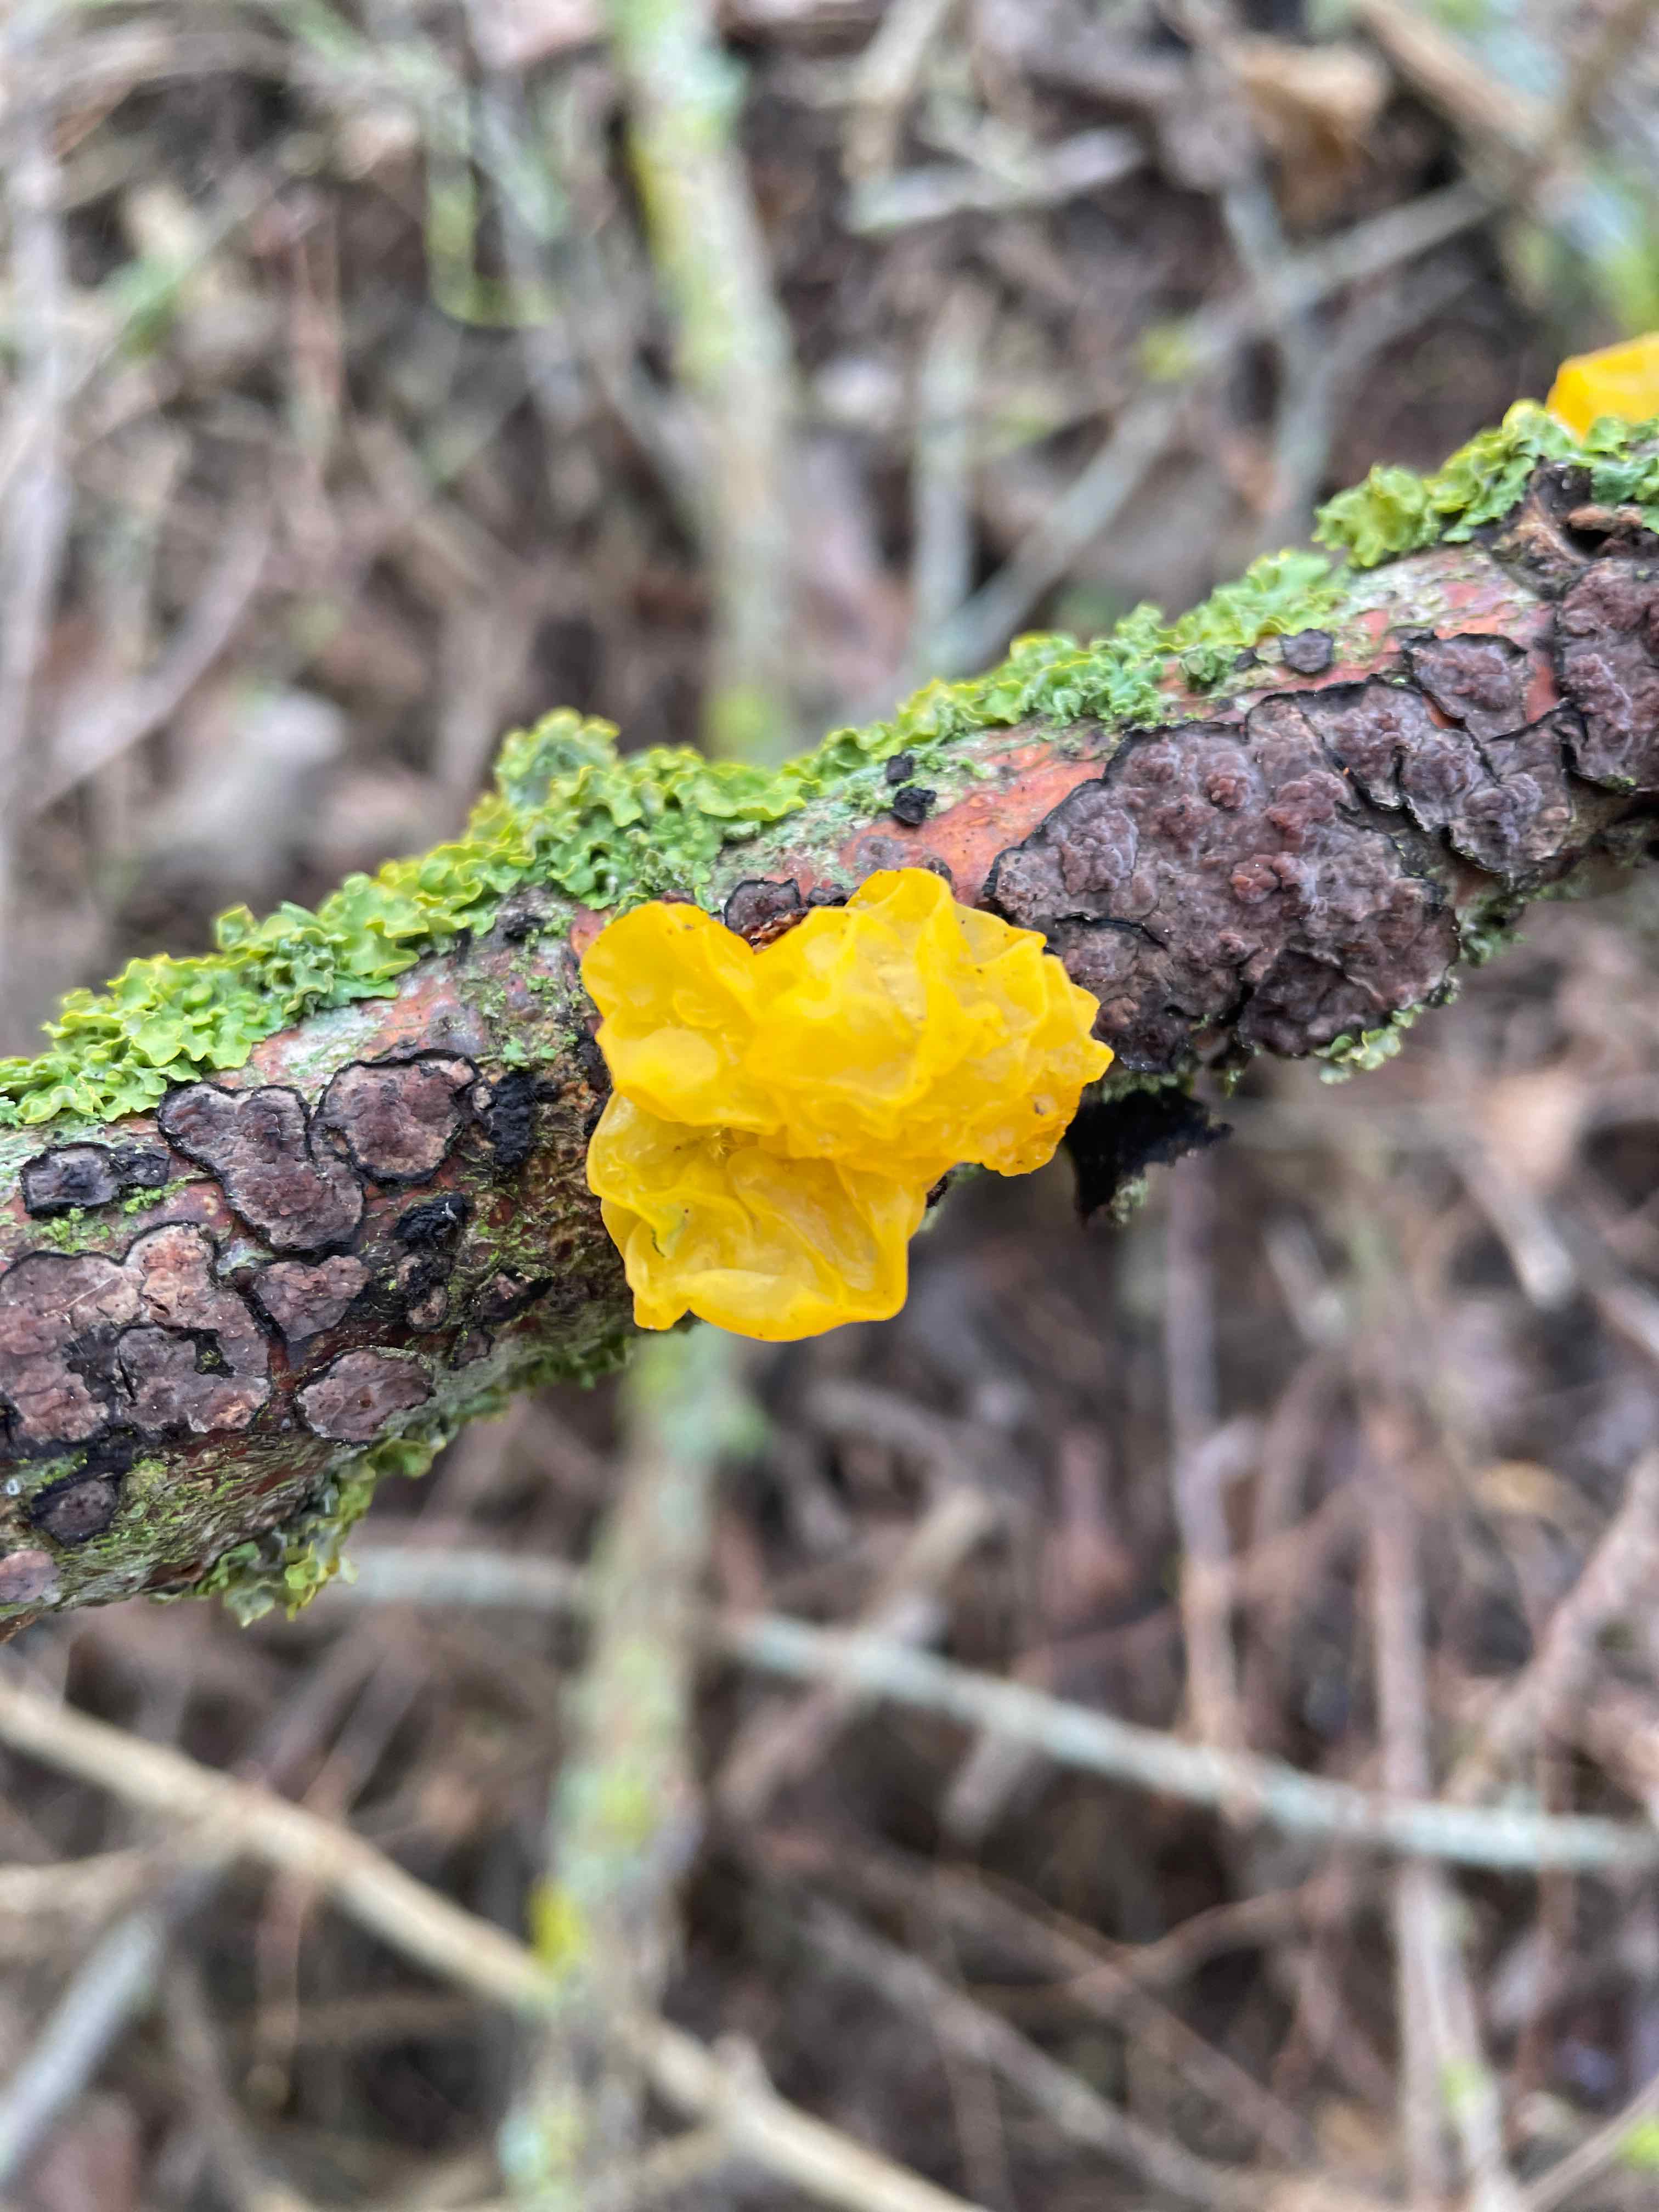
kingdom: Fungi
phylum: Basidiomycota
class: Tremellomycetes
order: Tremellales
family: Tremellaceae
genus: Tremella
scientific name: Tremella mesenterica
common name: gul bævresvamp
